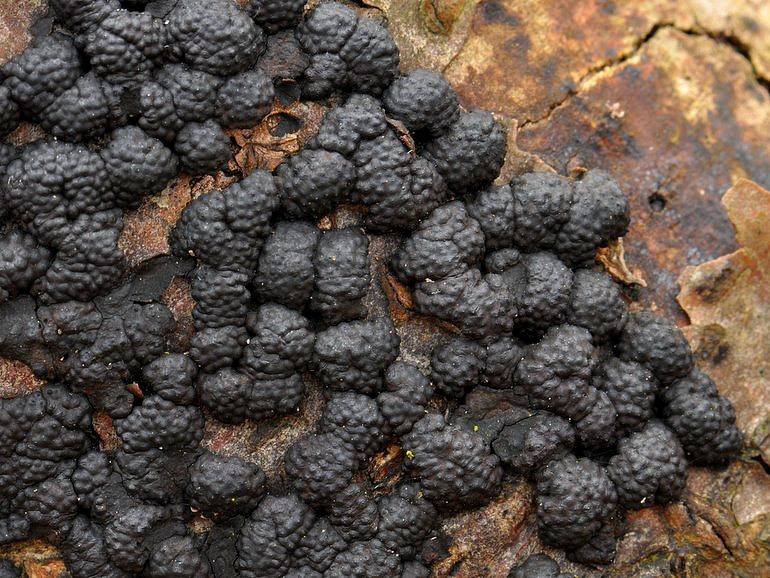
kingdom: Fungi
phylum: Ascomycota
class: Sordariomycetes
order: Xylariales
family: Hypoxylaceae
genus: Jackrogersella
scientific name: Jackrogersella cohaerens
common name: sammenflydende kulbær
